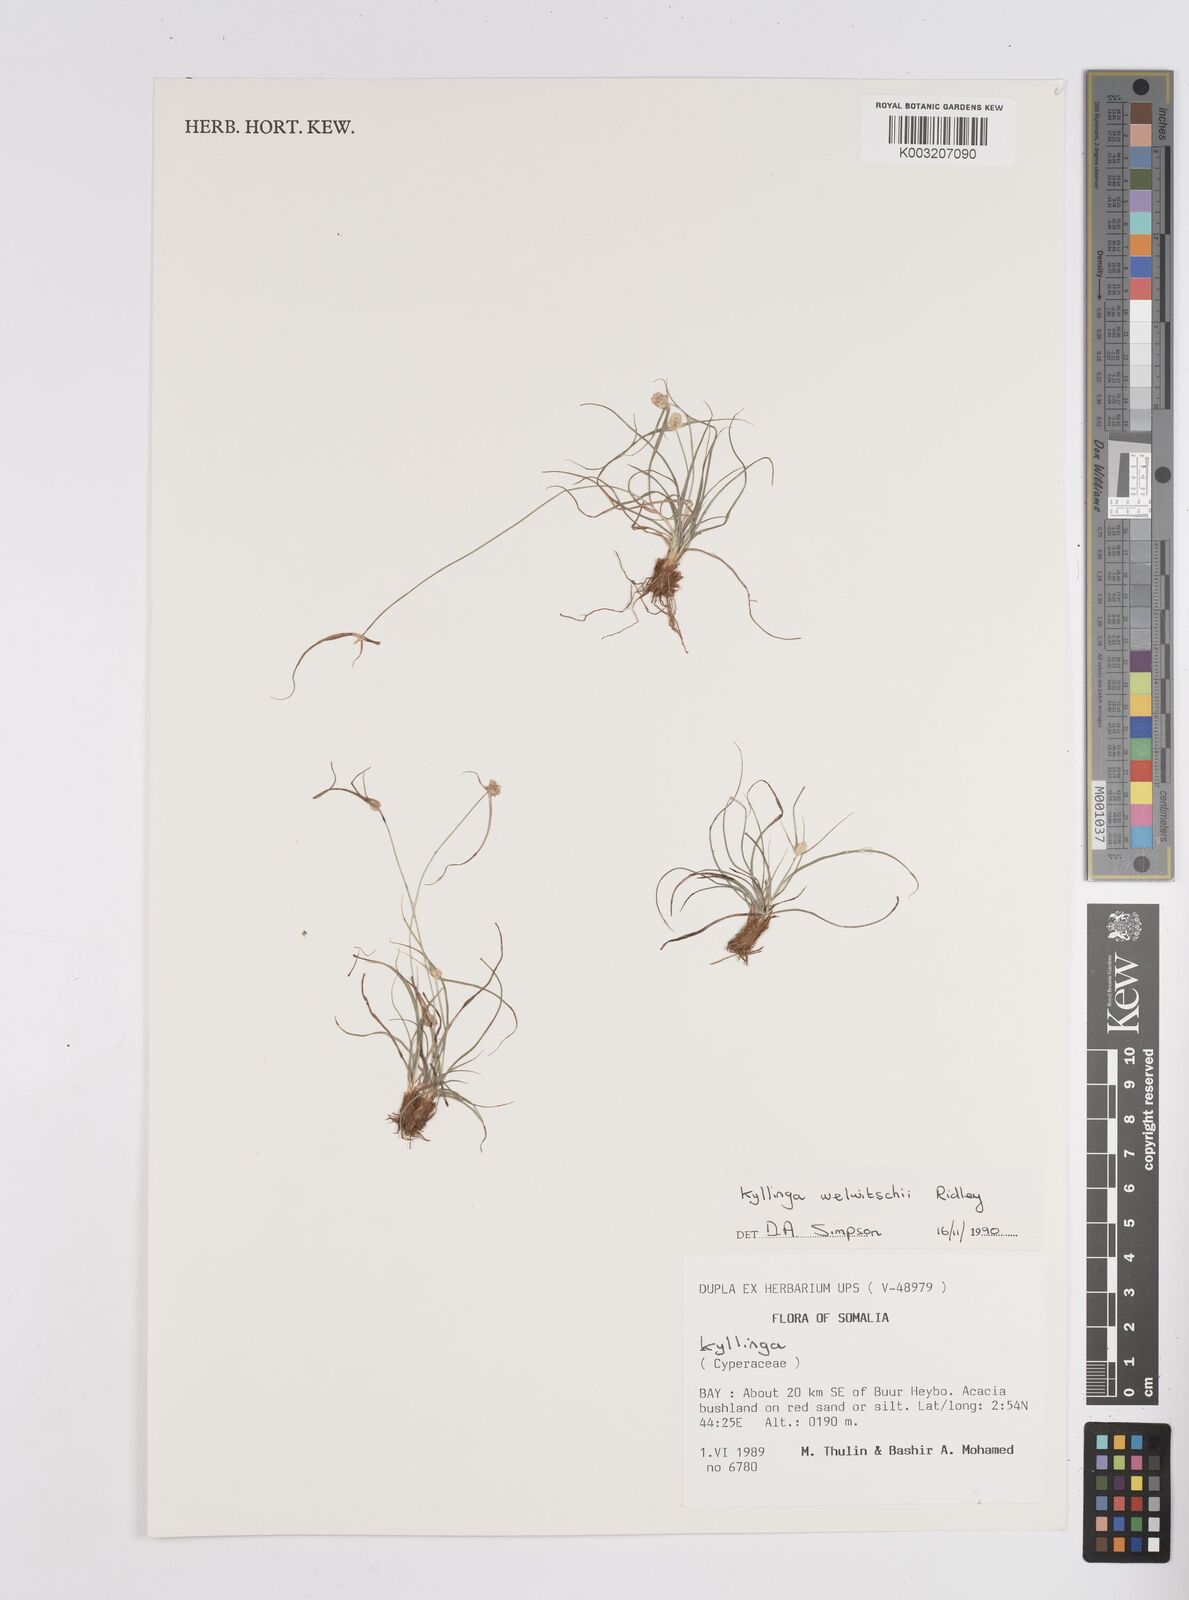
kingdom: Plantae
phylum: Tracheophyta
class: Liliopsida
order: Poales
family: Cyperaceae
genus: Cyperus
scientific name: Cyperus welwitschii
